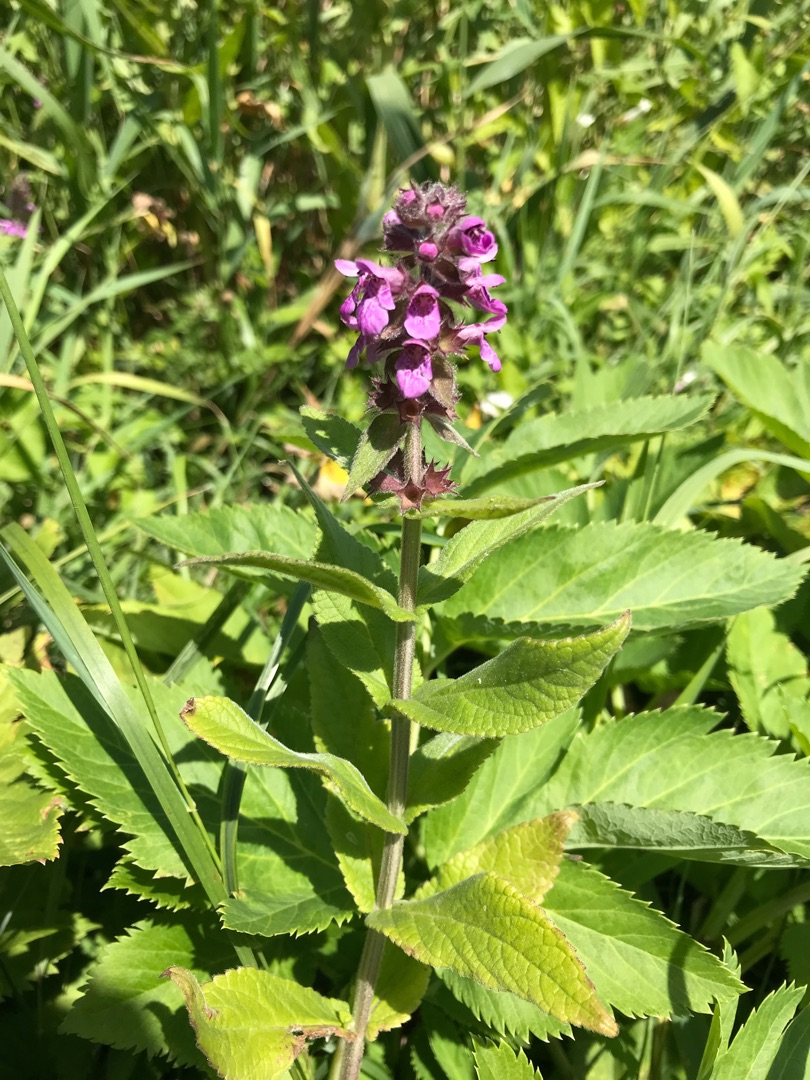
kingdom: Plantae
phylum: Tracheophyta
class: Magnoliopsida
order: Lamiales
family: Lamiaceae
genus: Stachys
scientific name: Stachys palustris
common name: Kær-galtetand
